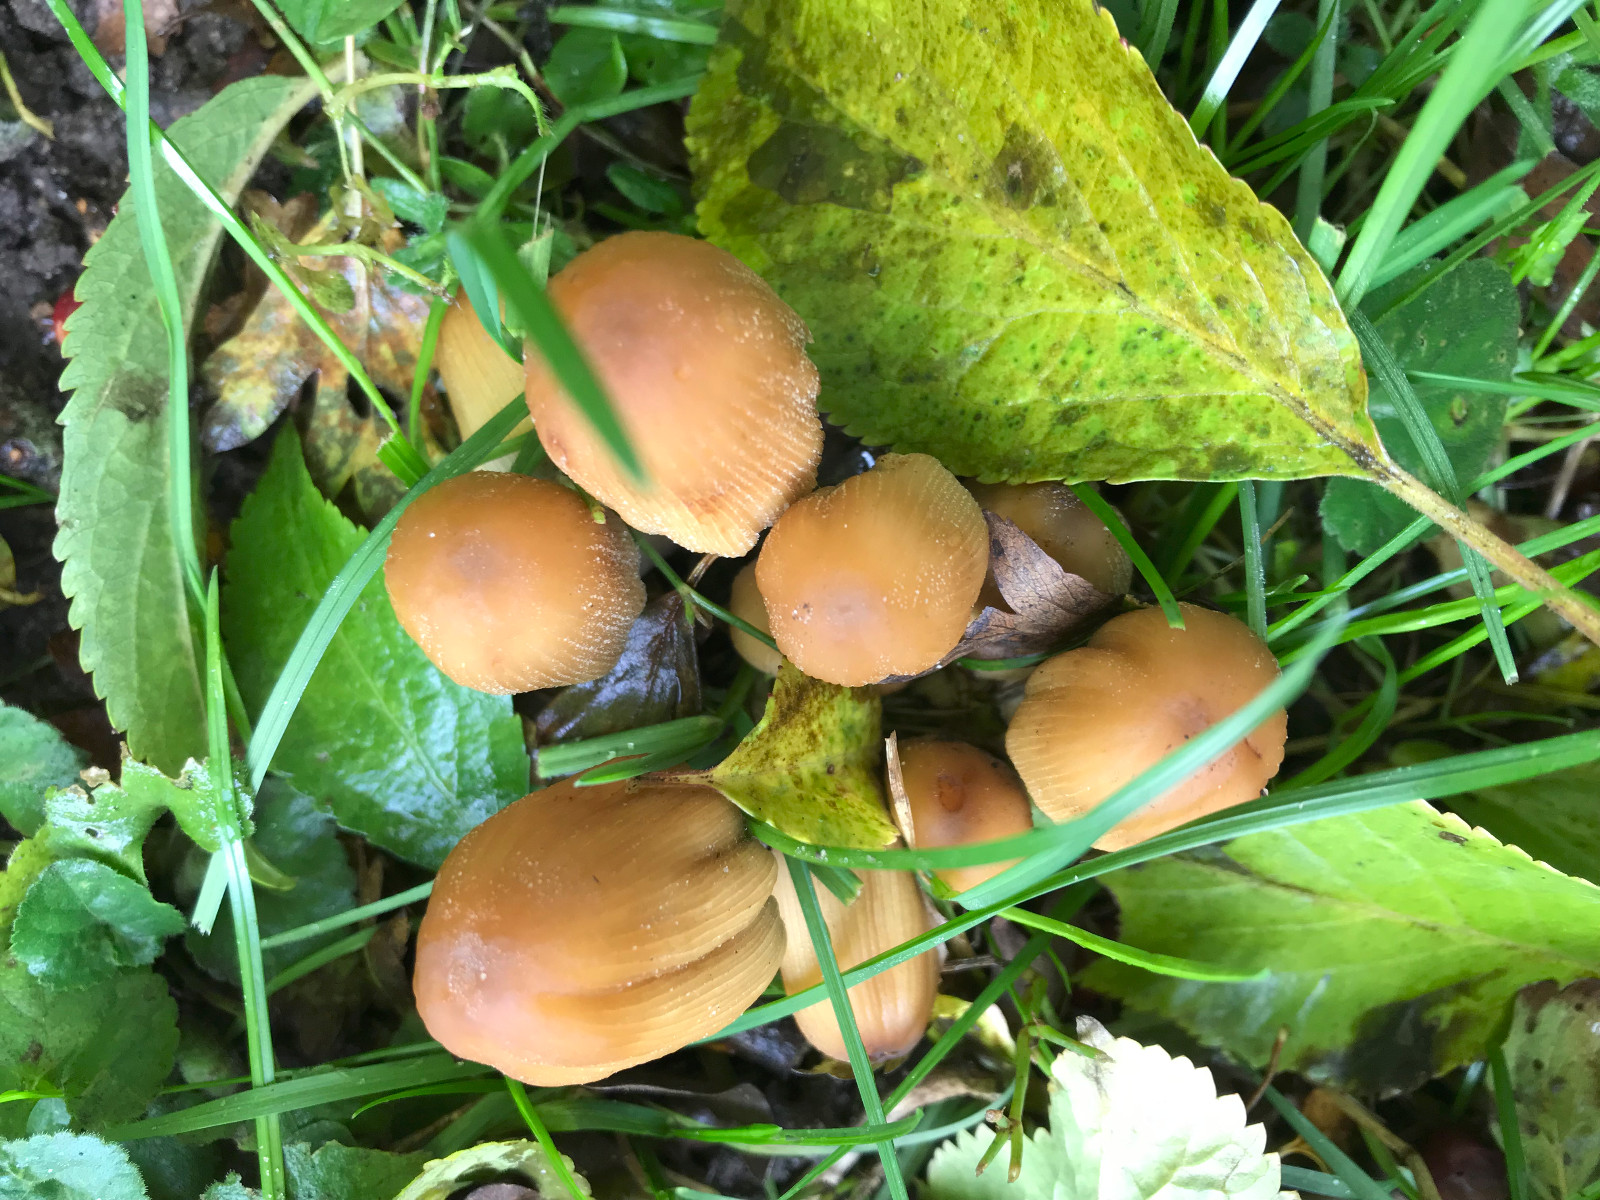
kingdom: Fungi
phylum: Basidiomycota
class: Agaricomycetes
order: Agaricales
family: Psathyrellaceae
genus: Coprinellus
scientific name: Coprinellus micaceus
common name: glimmer-blækhat
